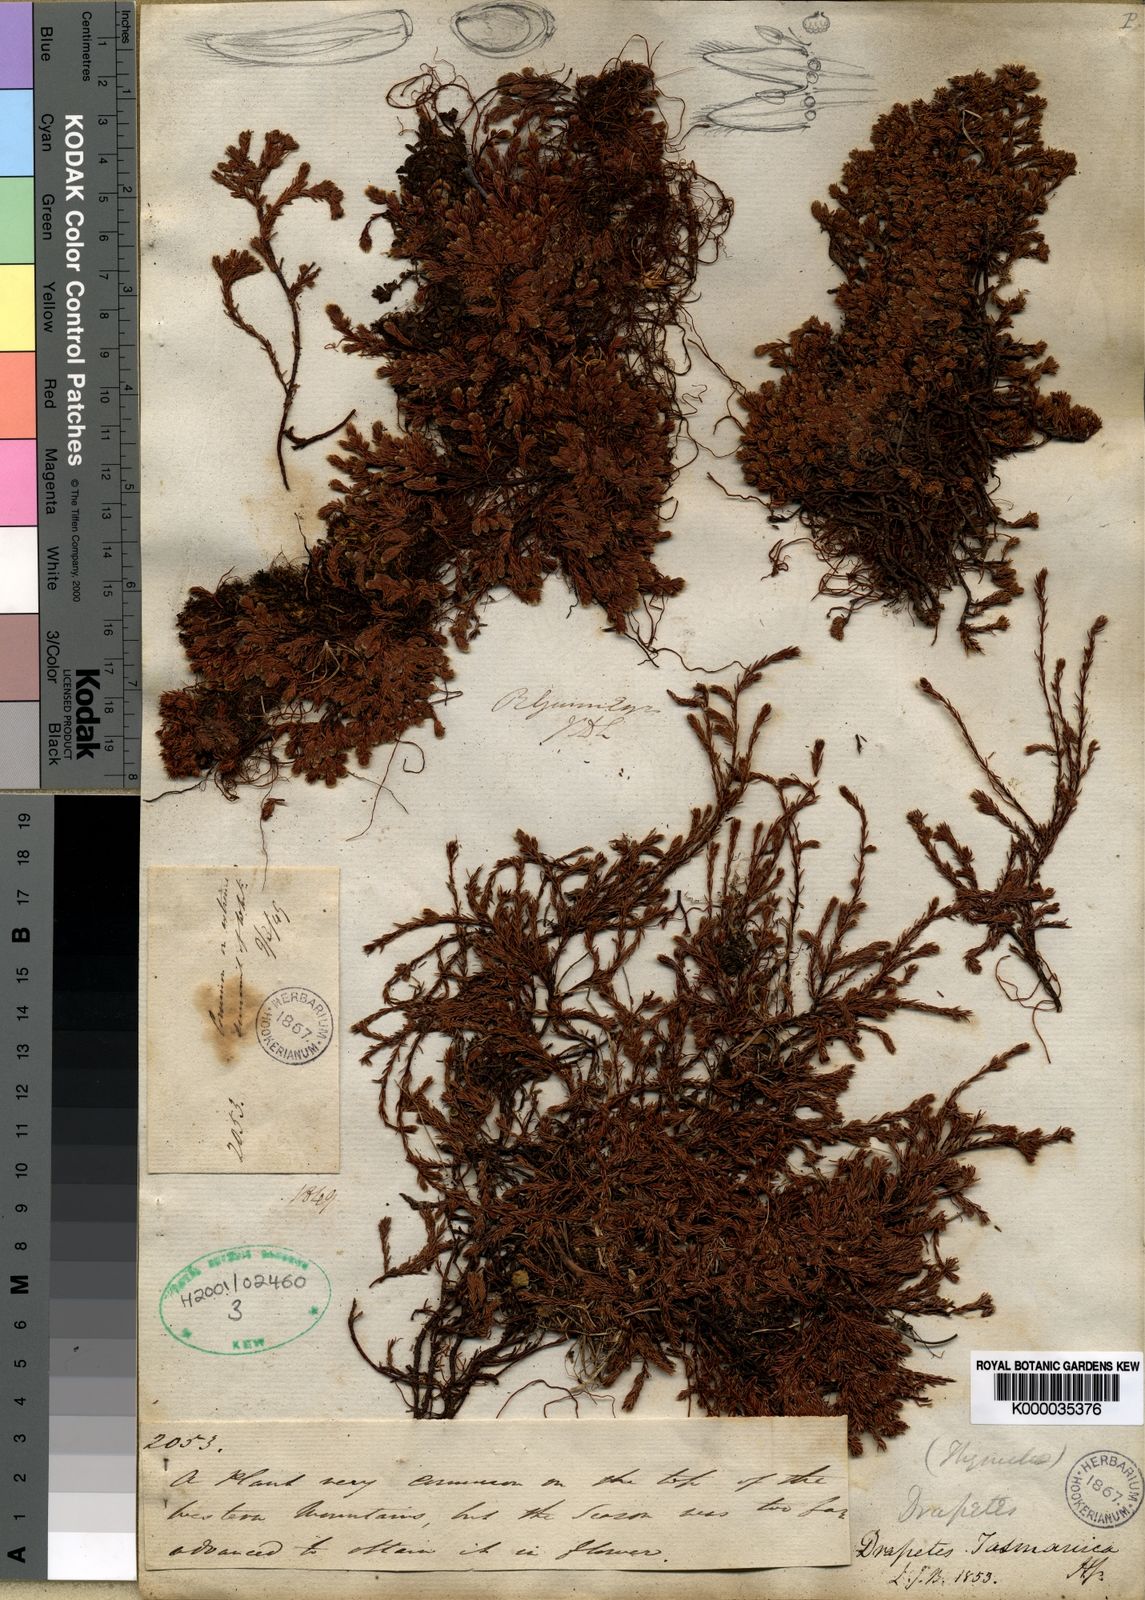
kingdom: Plantae
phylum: Tracheophyta
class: Magnoliopsida
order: Malvales
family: Thymelaeaceae
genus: Kelleria
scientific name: Kelleria
